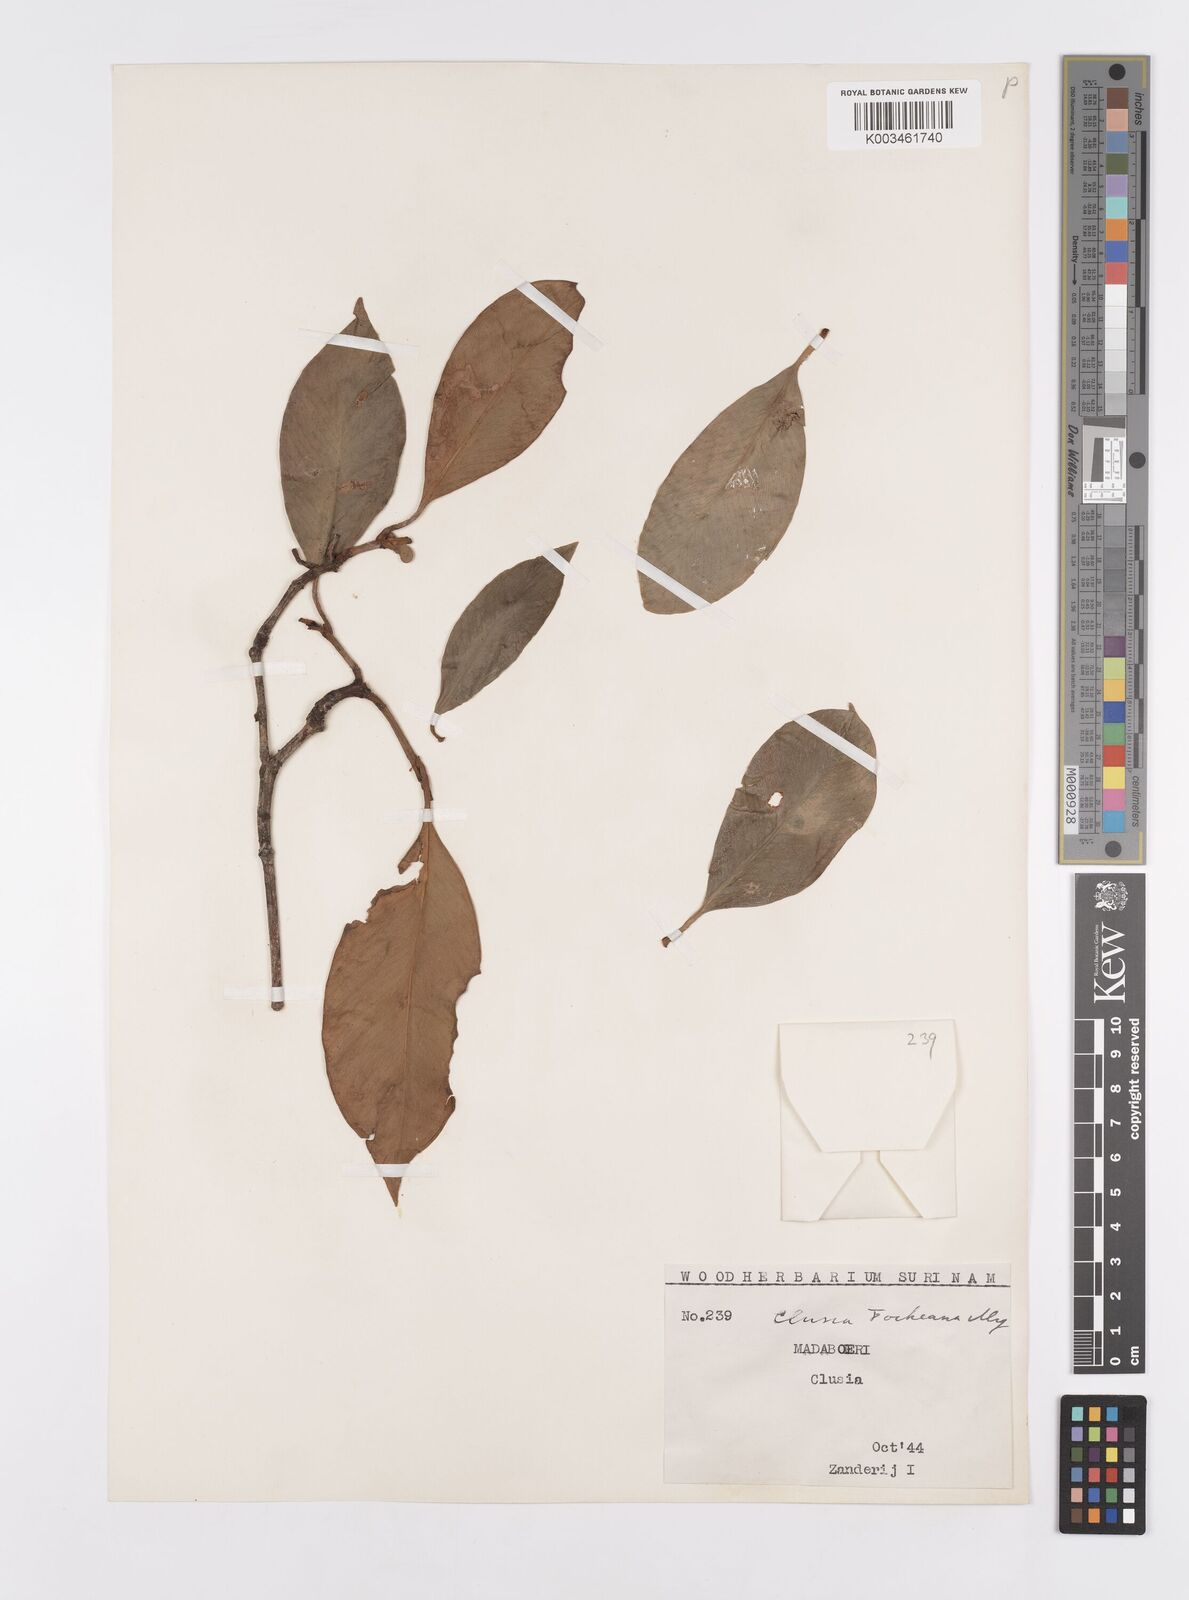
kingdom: Plantae
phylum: Tracheophyta
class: Magnoliopsida
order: Malpighiales
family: Clusiaceae
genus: Clusia
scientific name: Clusia fockeana
